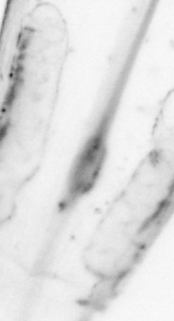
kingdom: Animalia
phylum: Chordata
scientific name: Chordata
